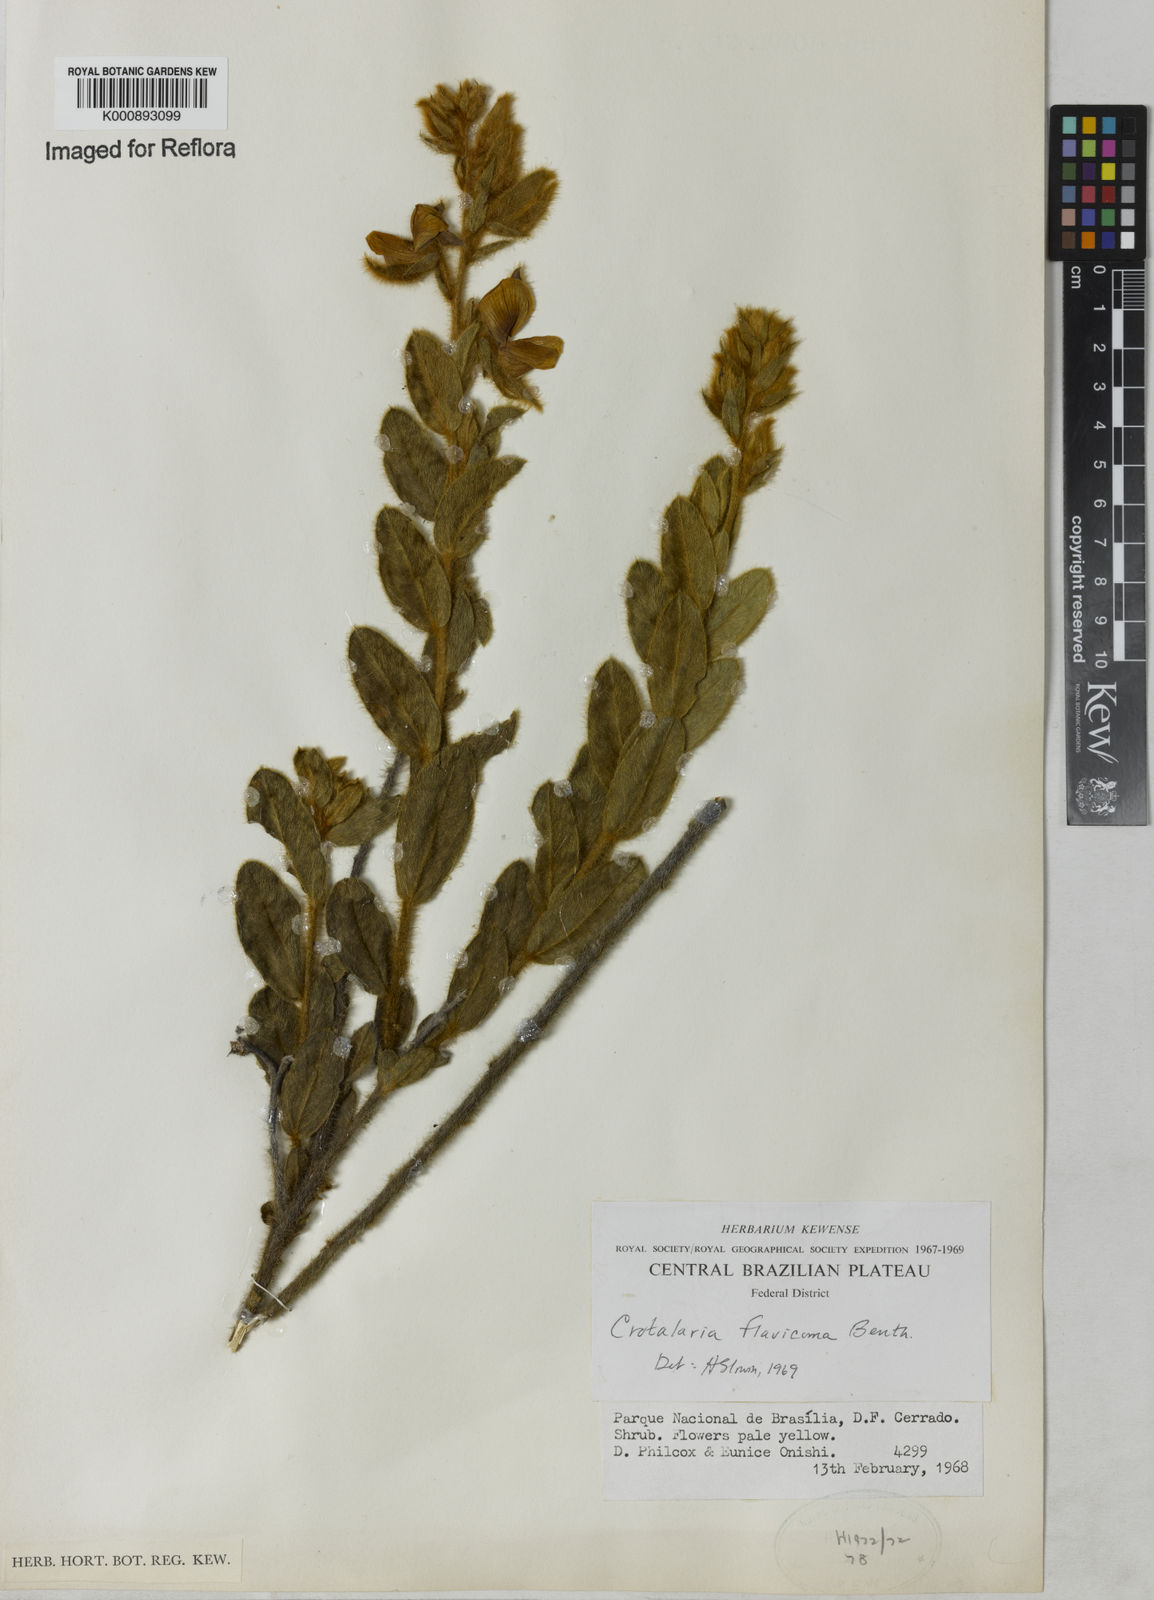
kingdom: Plantae
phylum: Tracheophyta
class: Magnoliopsida
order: Fabales
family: Fabaceae
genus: Crotalaria
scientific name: Crotalaria flavicoma
